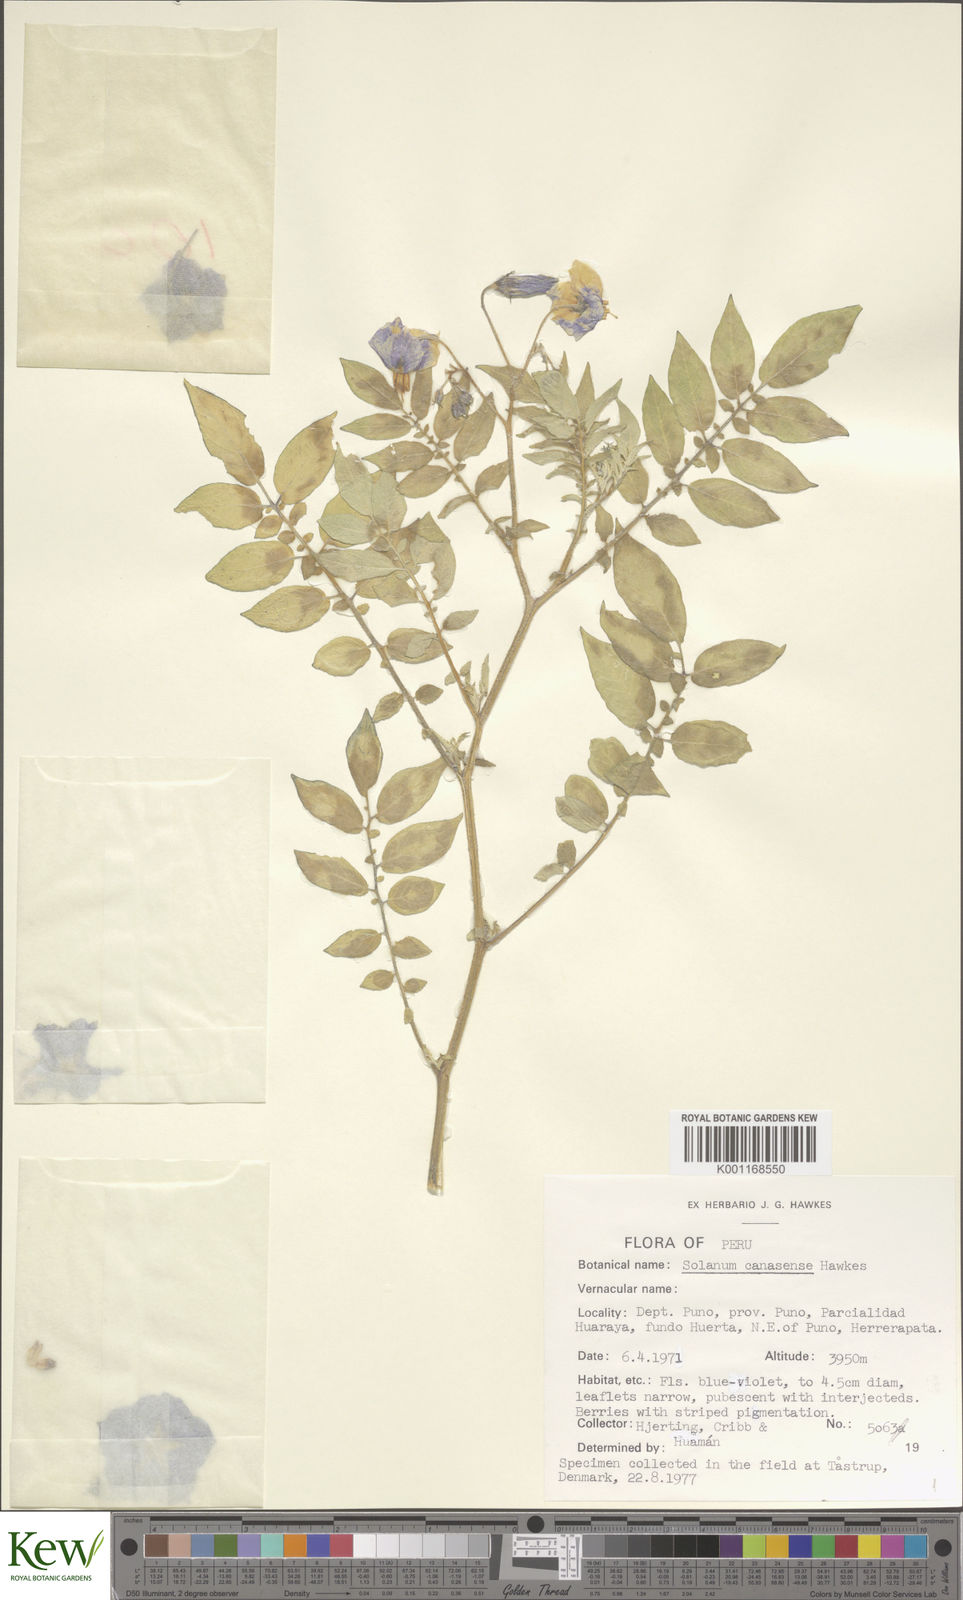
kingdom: Plantae
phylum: Tracheophyta
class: Magnoliopsida
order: Solanales
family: Solanaceae
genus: Solanum
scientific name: Solanum candolleanum
